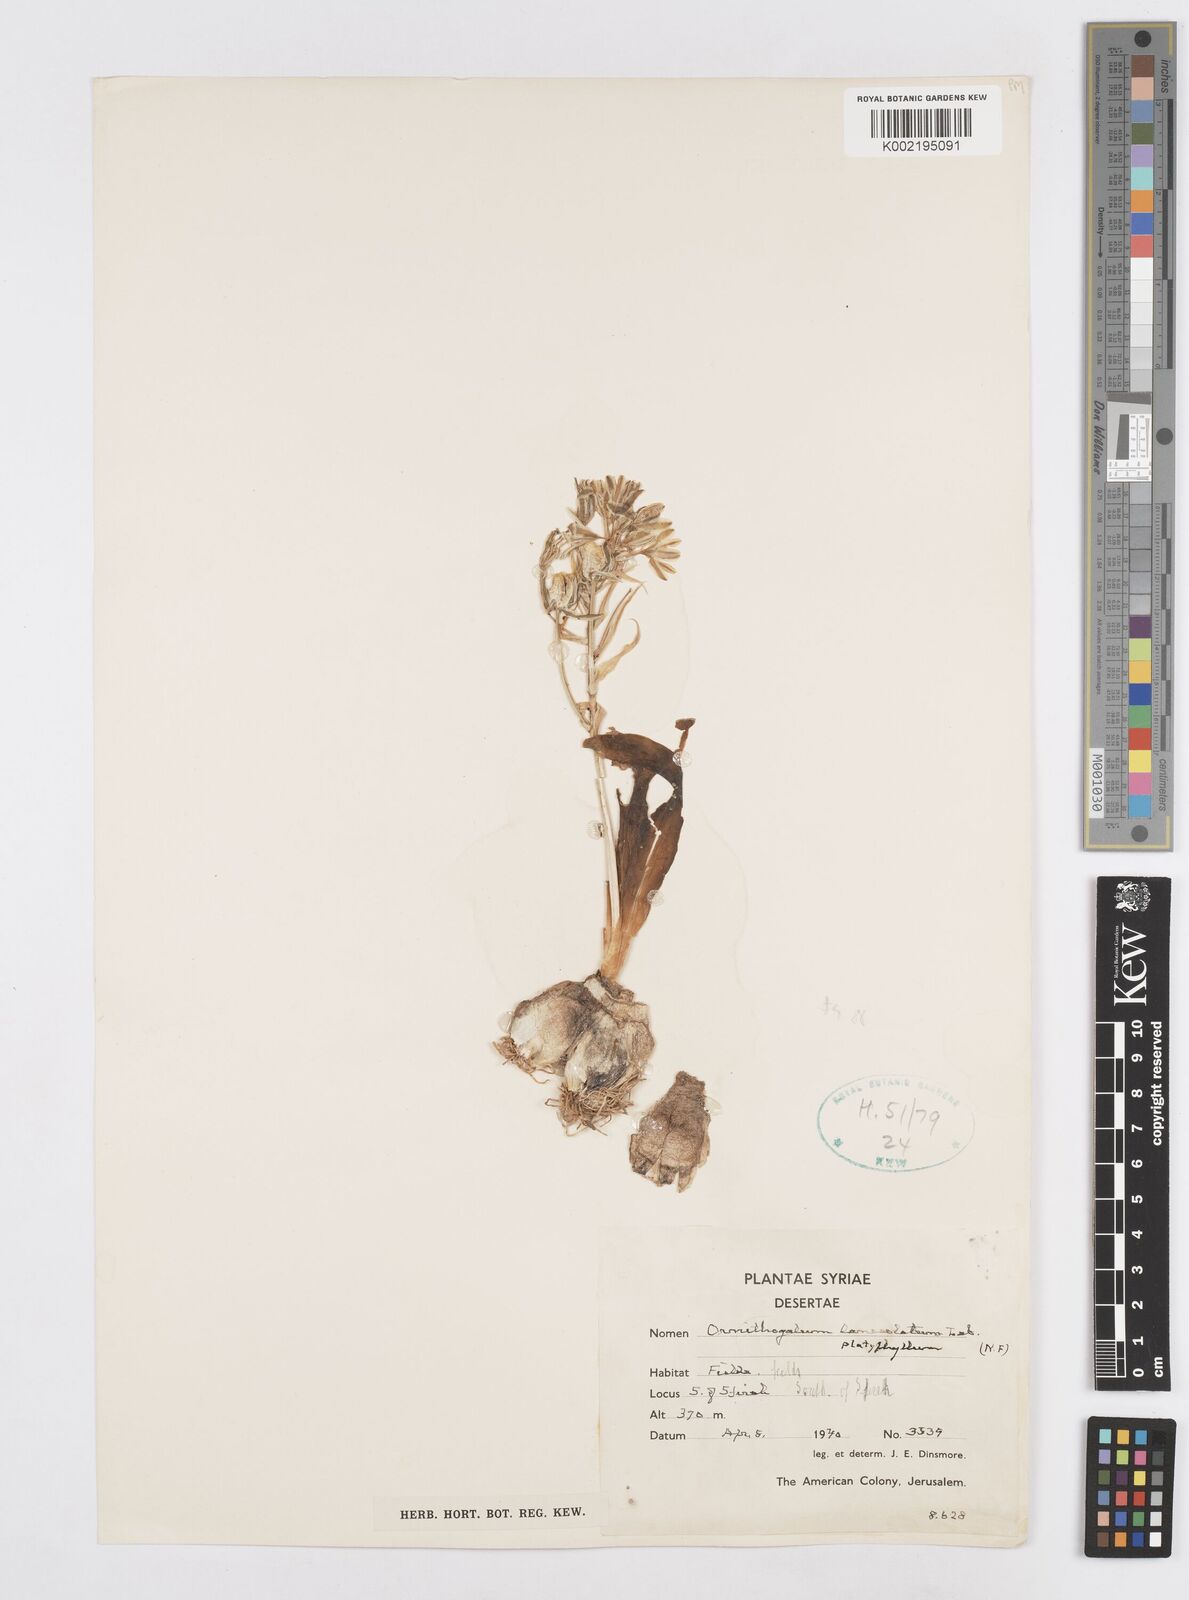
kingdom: Plantae
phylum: Tracheophyta
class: Liliopsida
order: Asparagales
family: Asparagaceae
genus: Ornithogalum
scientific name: Ornithogalum lanceolatum
